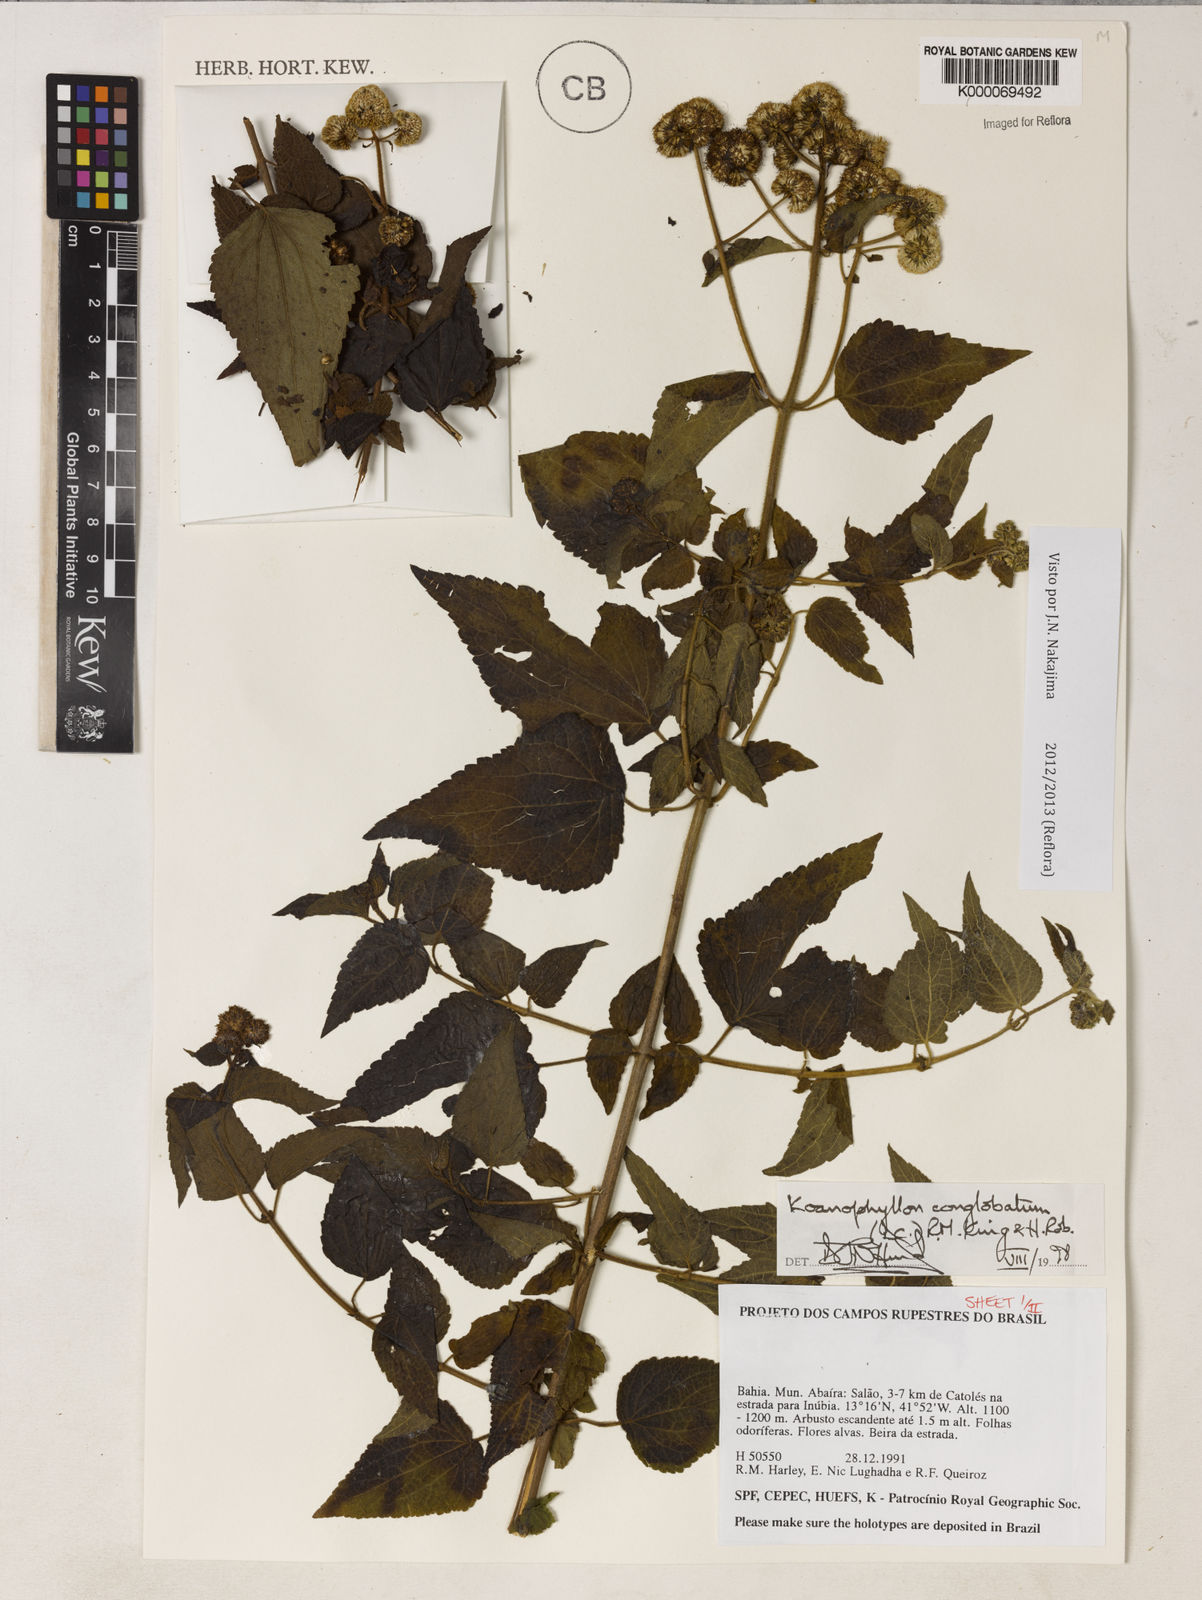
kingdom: Plantae
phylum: Tracheophyta
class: Magnoliopsida
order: Asterales
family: Asteraceae
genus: Koanophyllon
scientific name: Koanophyllon conglobatum
